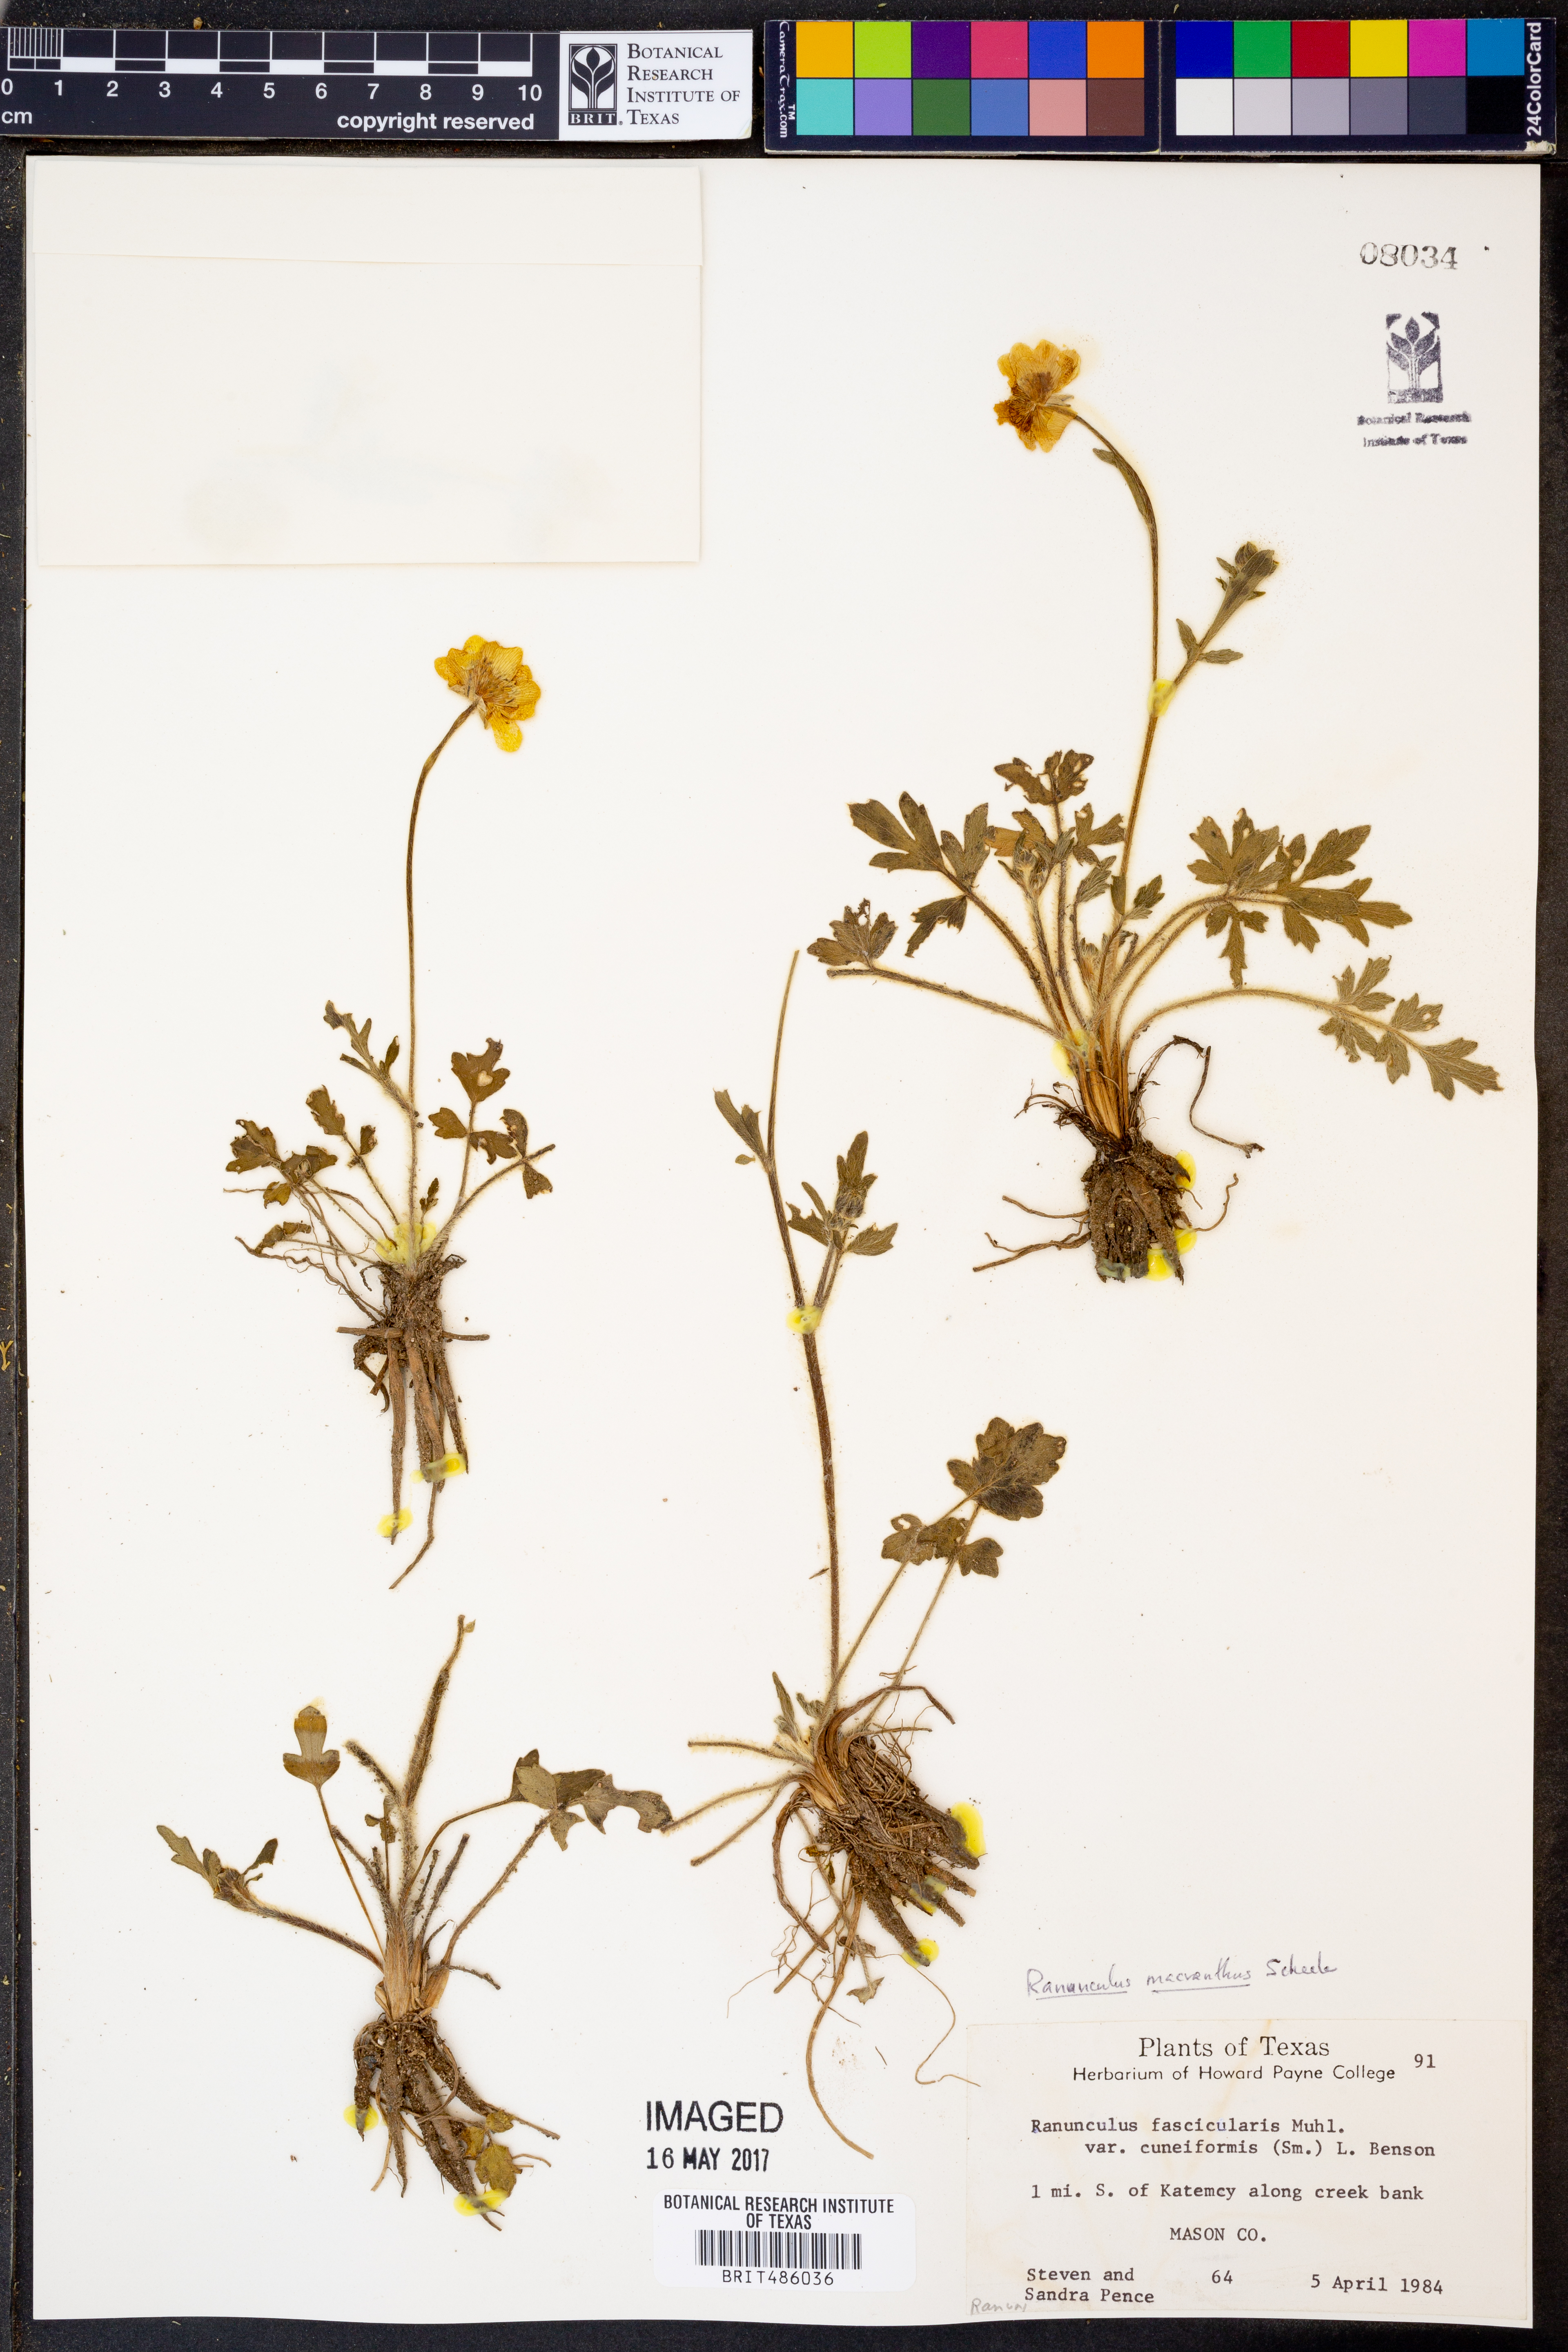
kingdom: Plantae
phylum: Tracheophyta
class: Magnoliopsida
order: Ranunculales
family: Ranunculaceae
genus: Ranunculus
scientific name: Ranunculus macranthus
